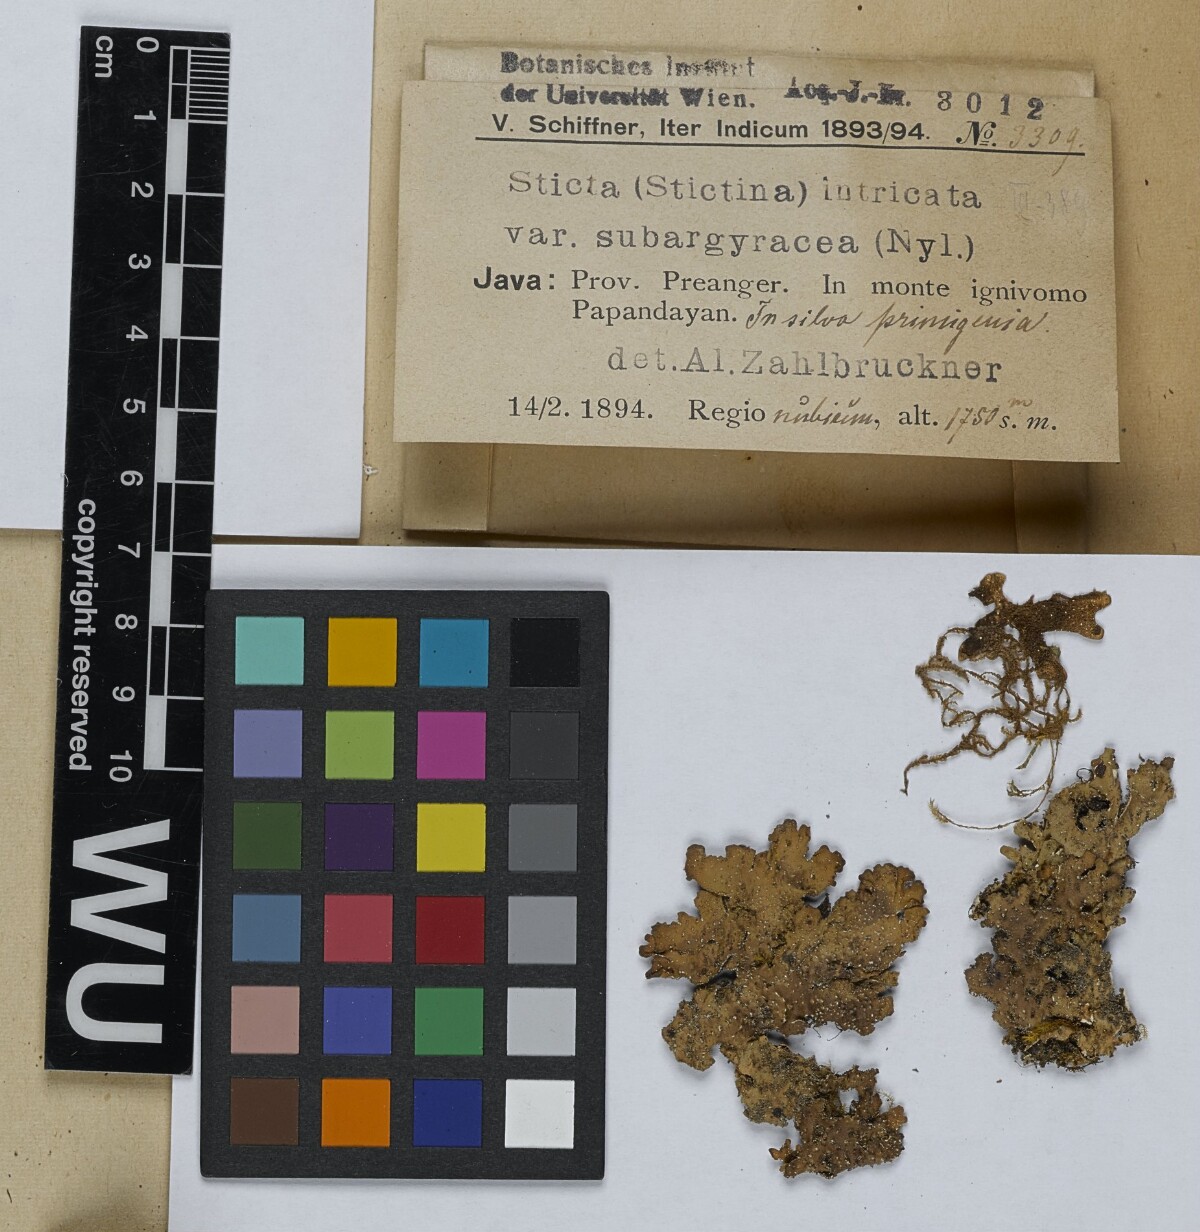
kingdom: Fungi
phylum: Ascomycota
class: Lecanoromycetes
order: Peltigerales
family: Lobariaceae
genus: Pseudocyphellaria
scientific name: Pseudocyphellaria intricata
